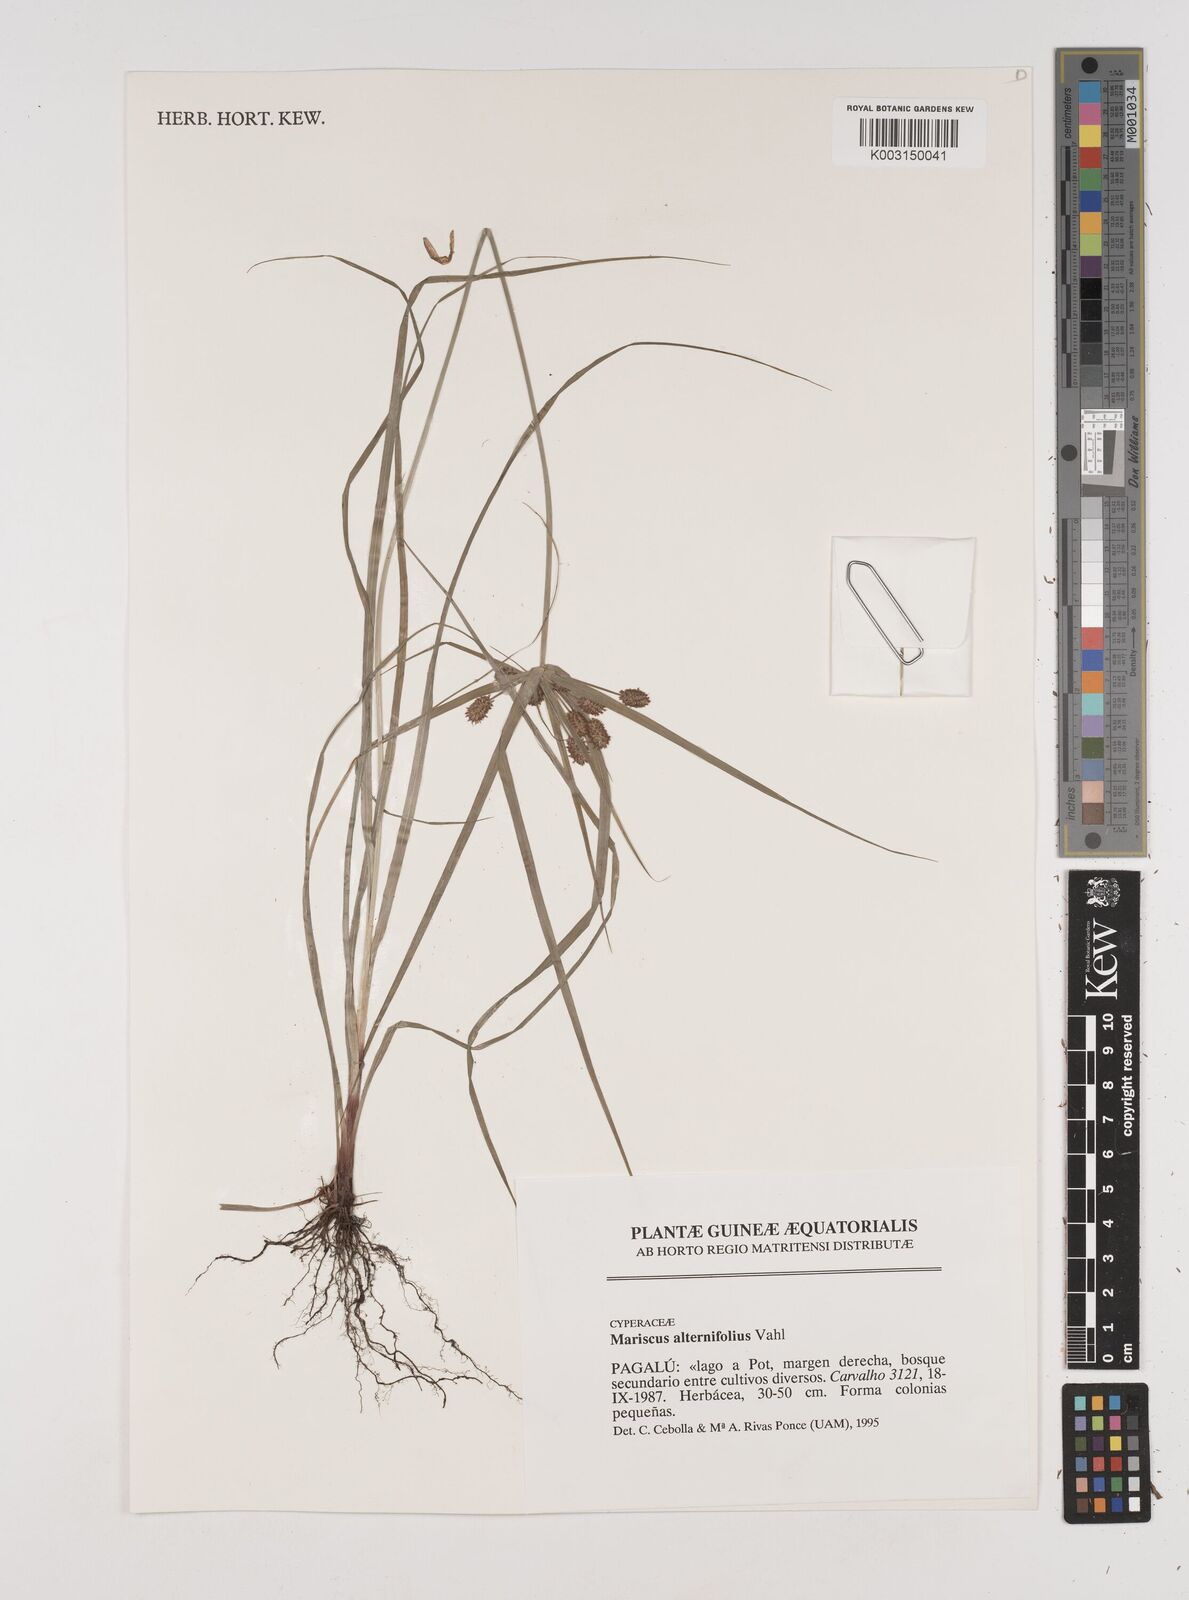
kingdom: Plantae
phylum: Tracheophyta
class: Liliopsida
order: Poales
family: Cyperaceae
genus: Cyperus
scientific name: Cyperus cyperoides
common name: Pacific island flat sedge
